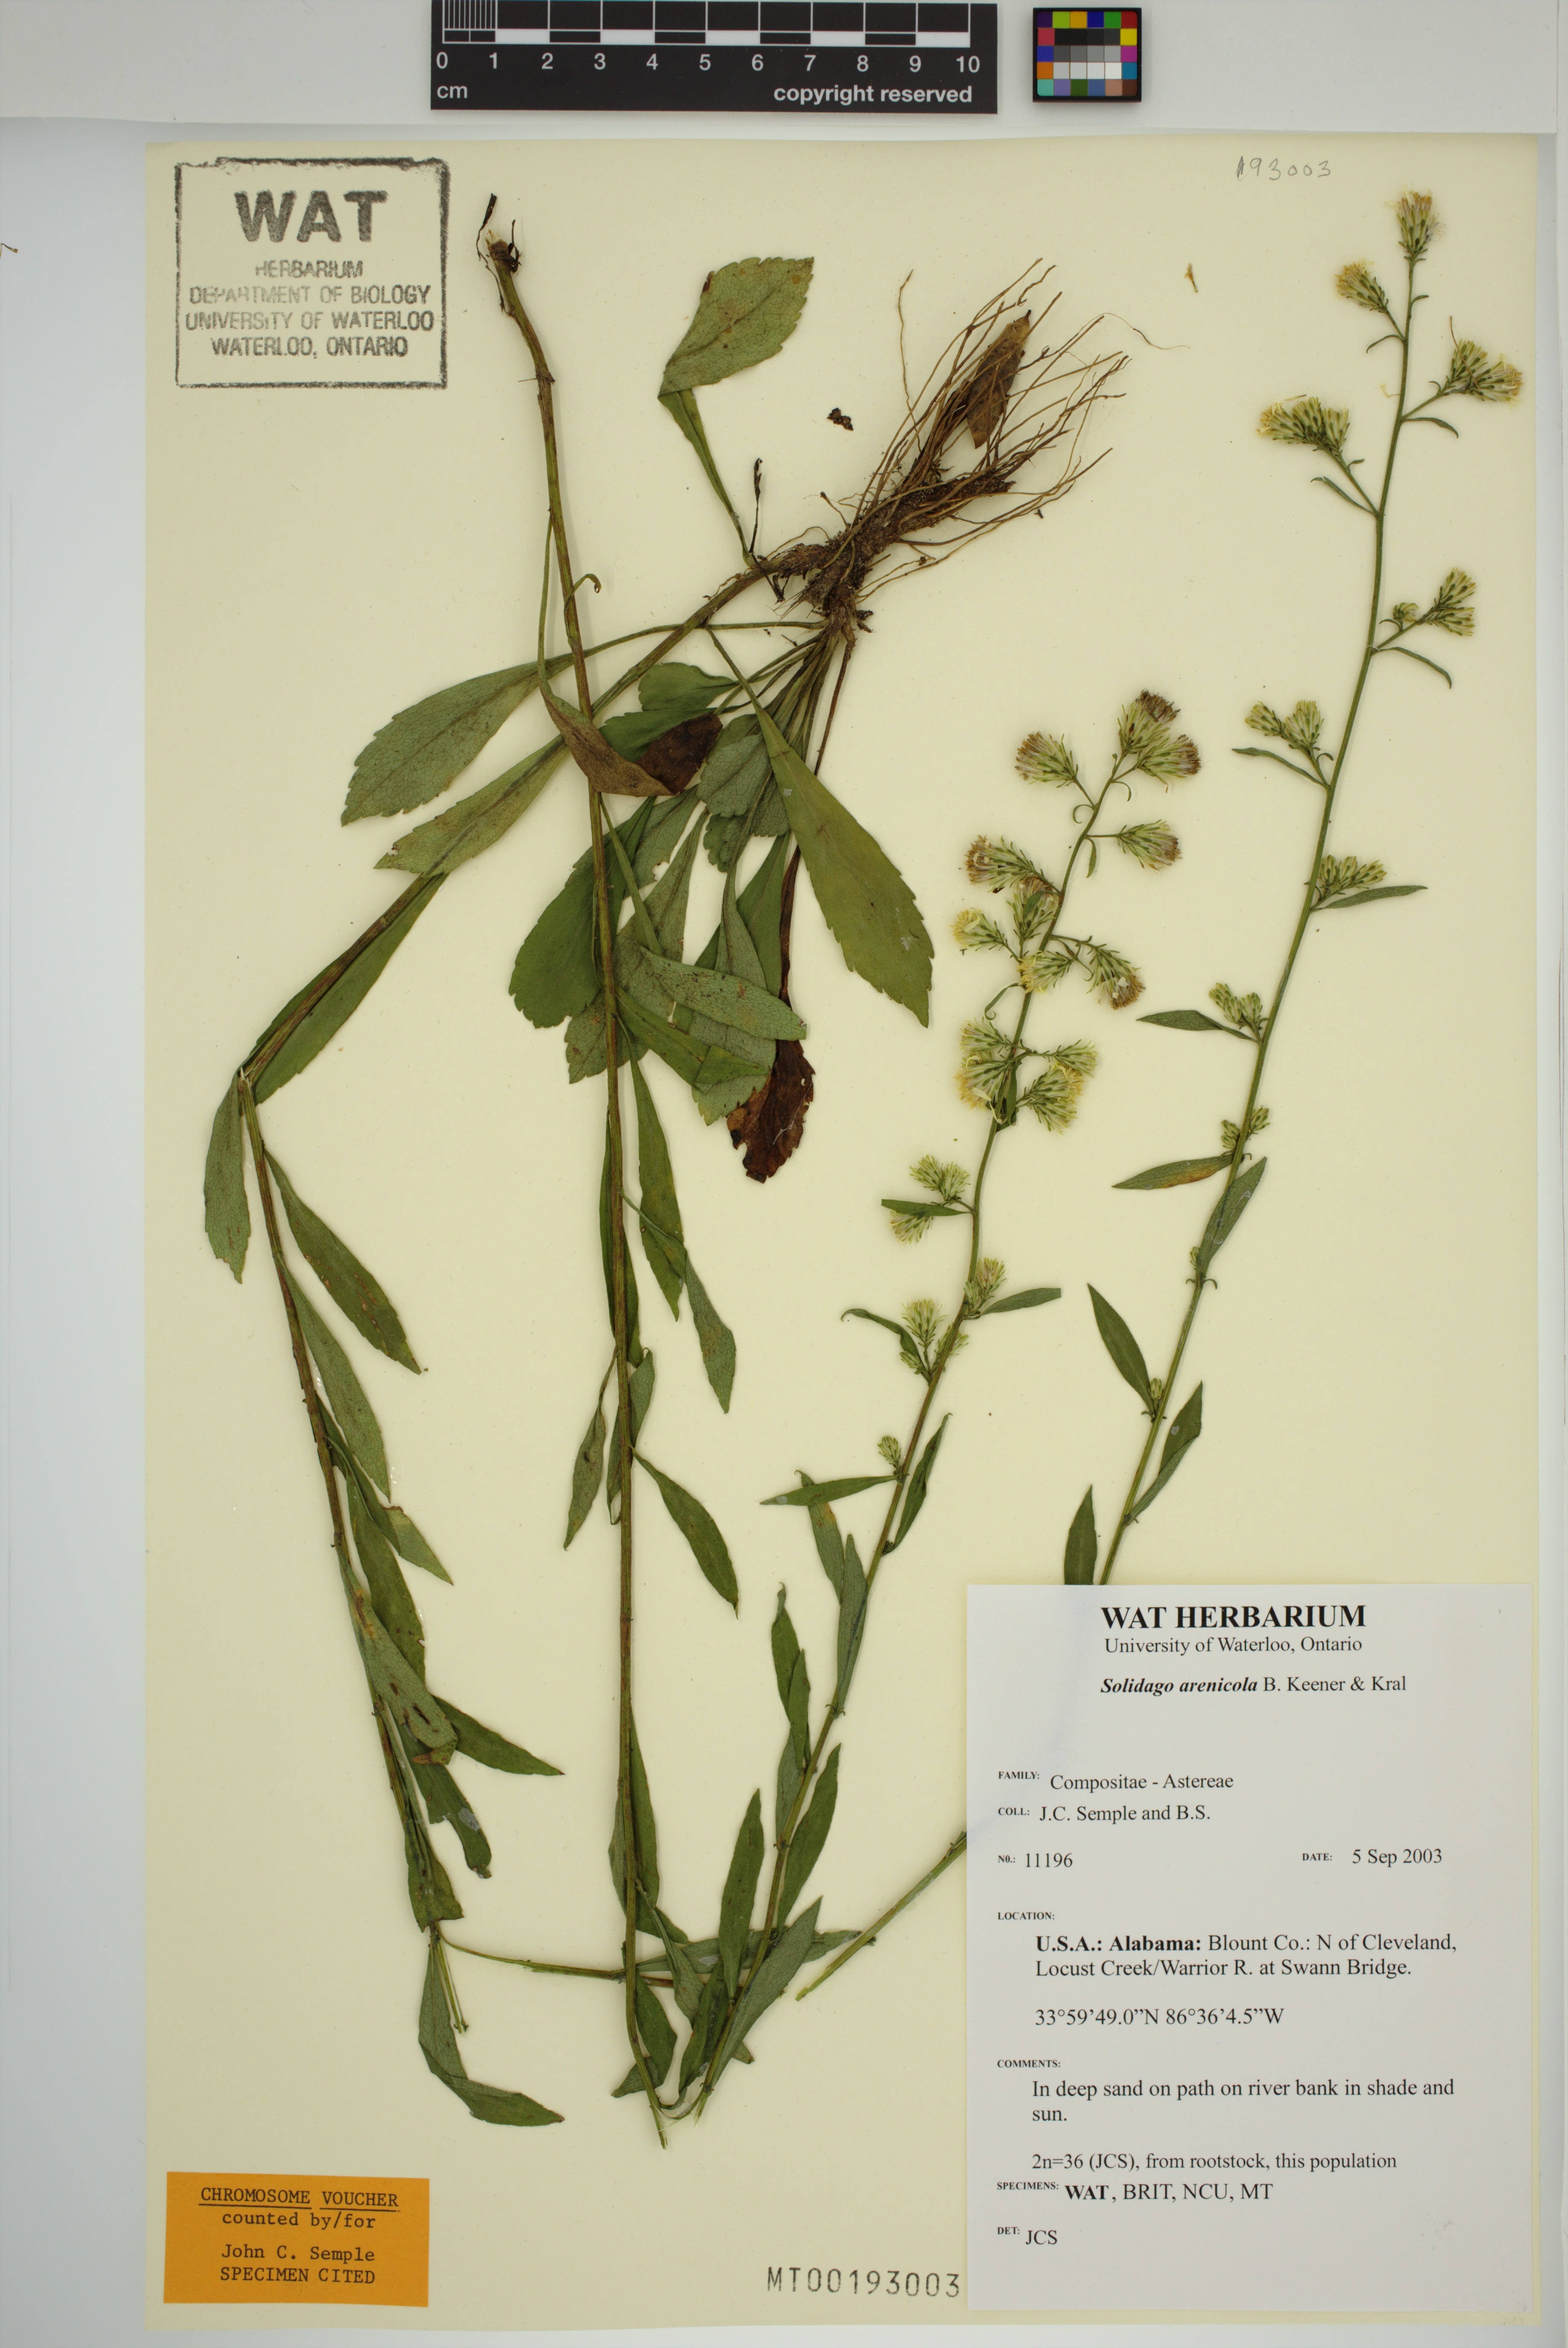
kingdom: Plantae
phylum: Tracheophyta
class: Magnoliopsida
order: Asterales
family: Asteraceae
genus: Solidago
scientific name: Solidago arenicola
